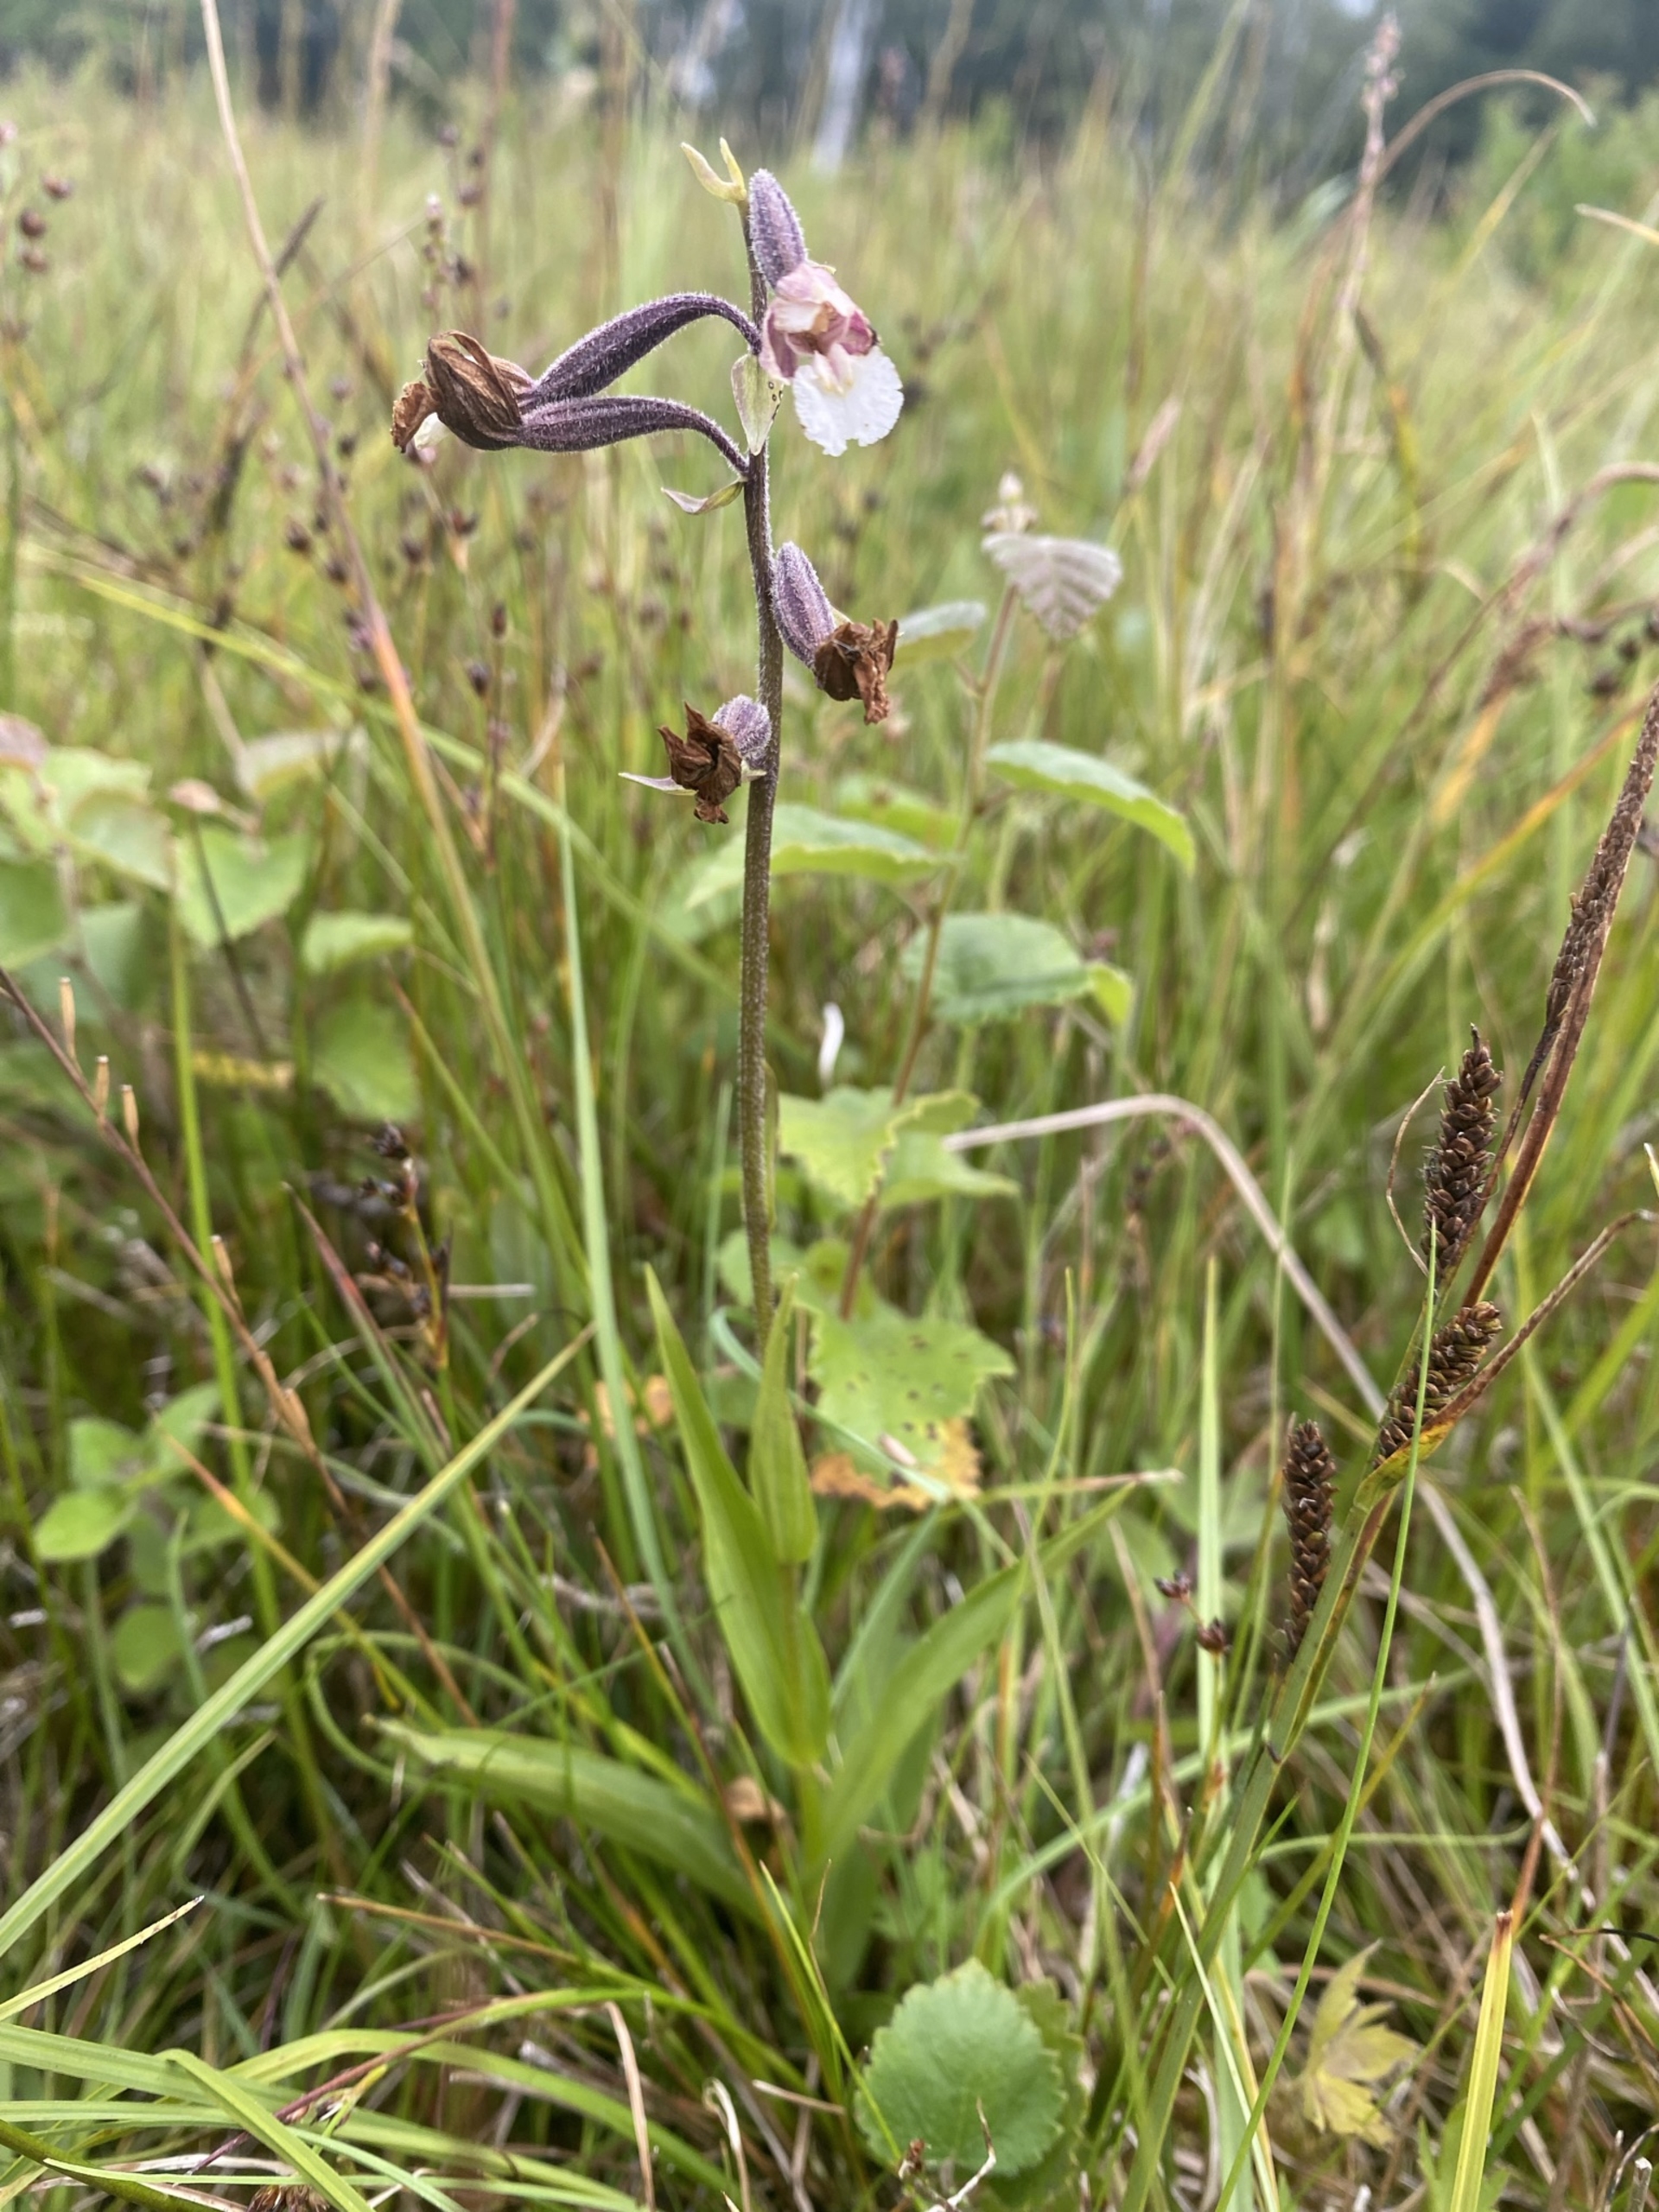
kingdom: Plantae
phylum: Tracheophyta
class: Liliopsida
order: Asparagales
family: Orchidaceae
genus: Epipactis
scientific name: Epipactis palustris
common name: Sump-hullæbe
